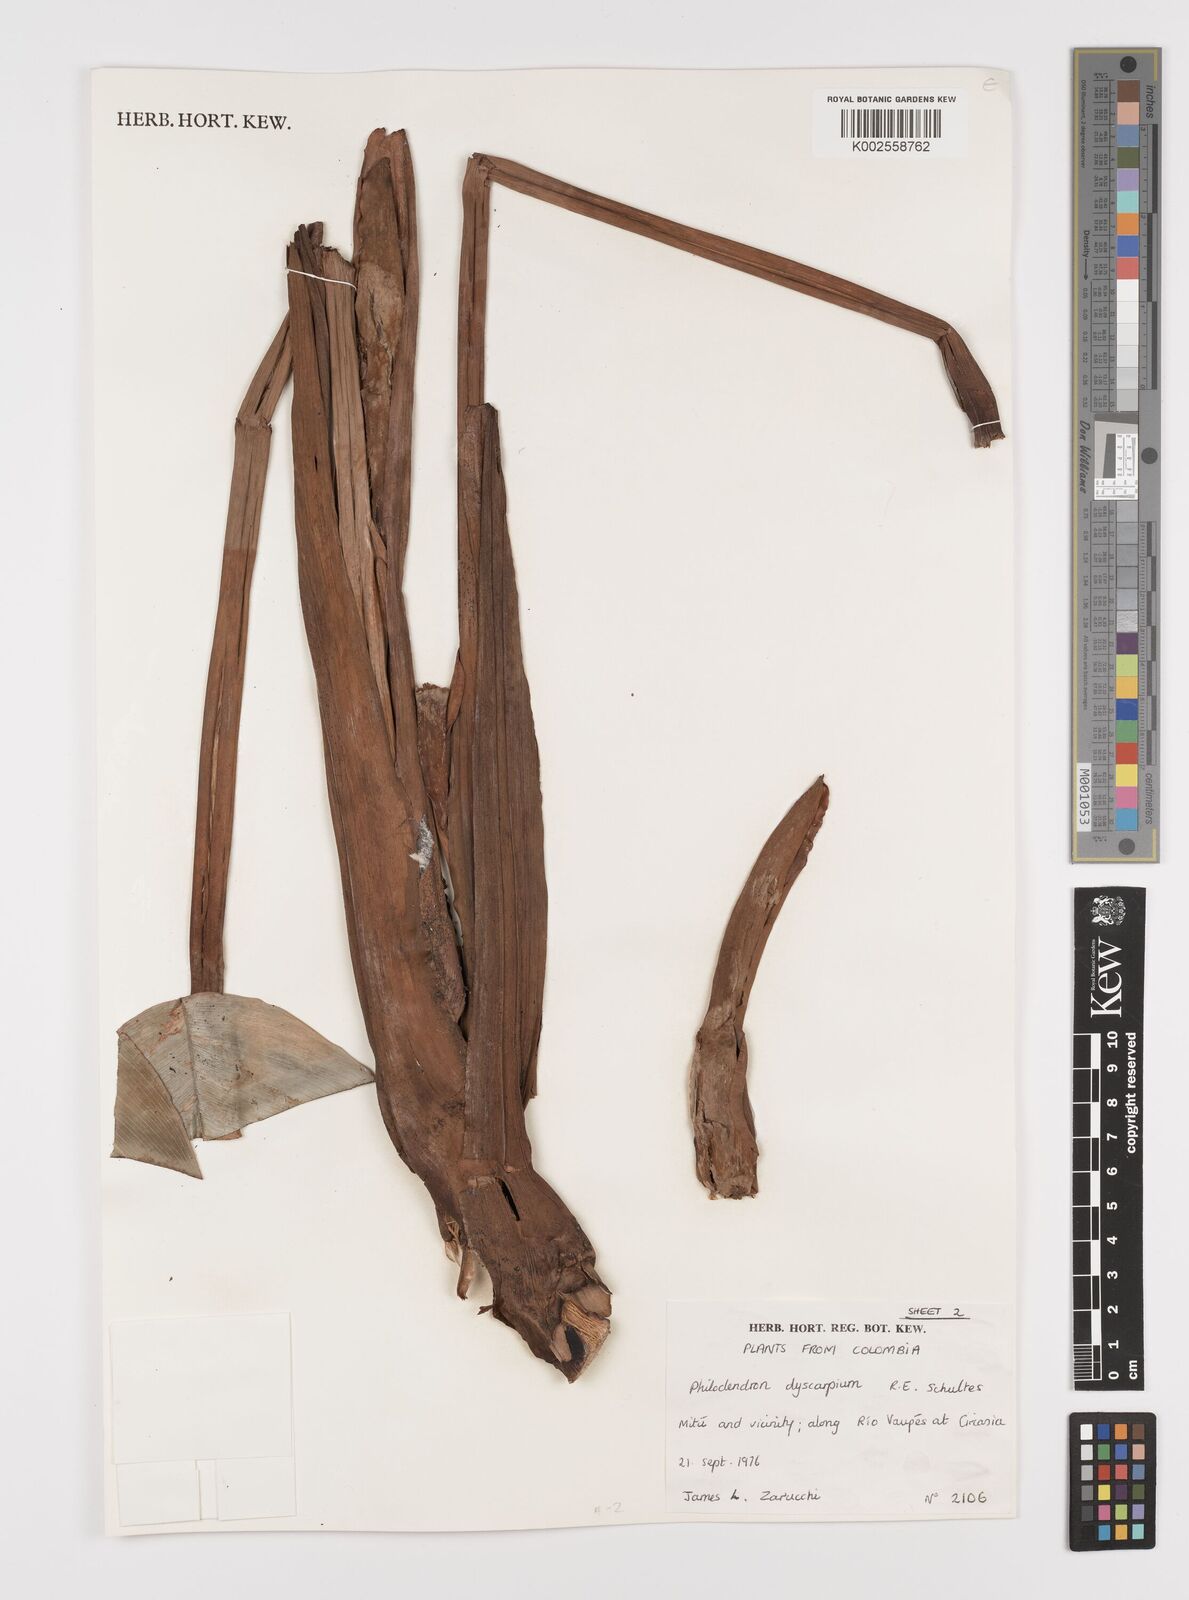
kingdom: Plantae
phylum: Tracheophyta
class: Liliopsida
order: Alismatales
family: Araceae
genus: Philodendron
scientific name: Philodendron dyscarpium
